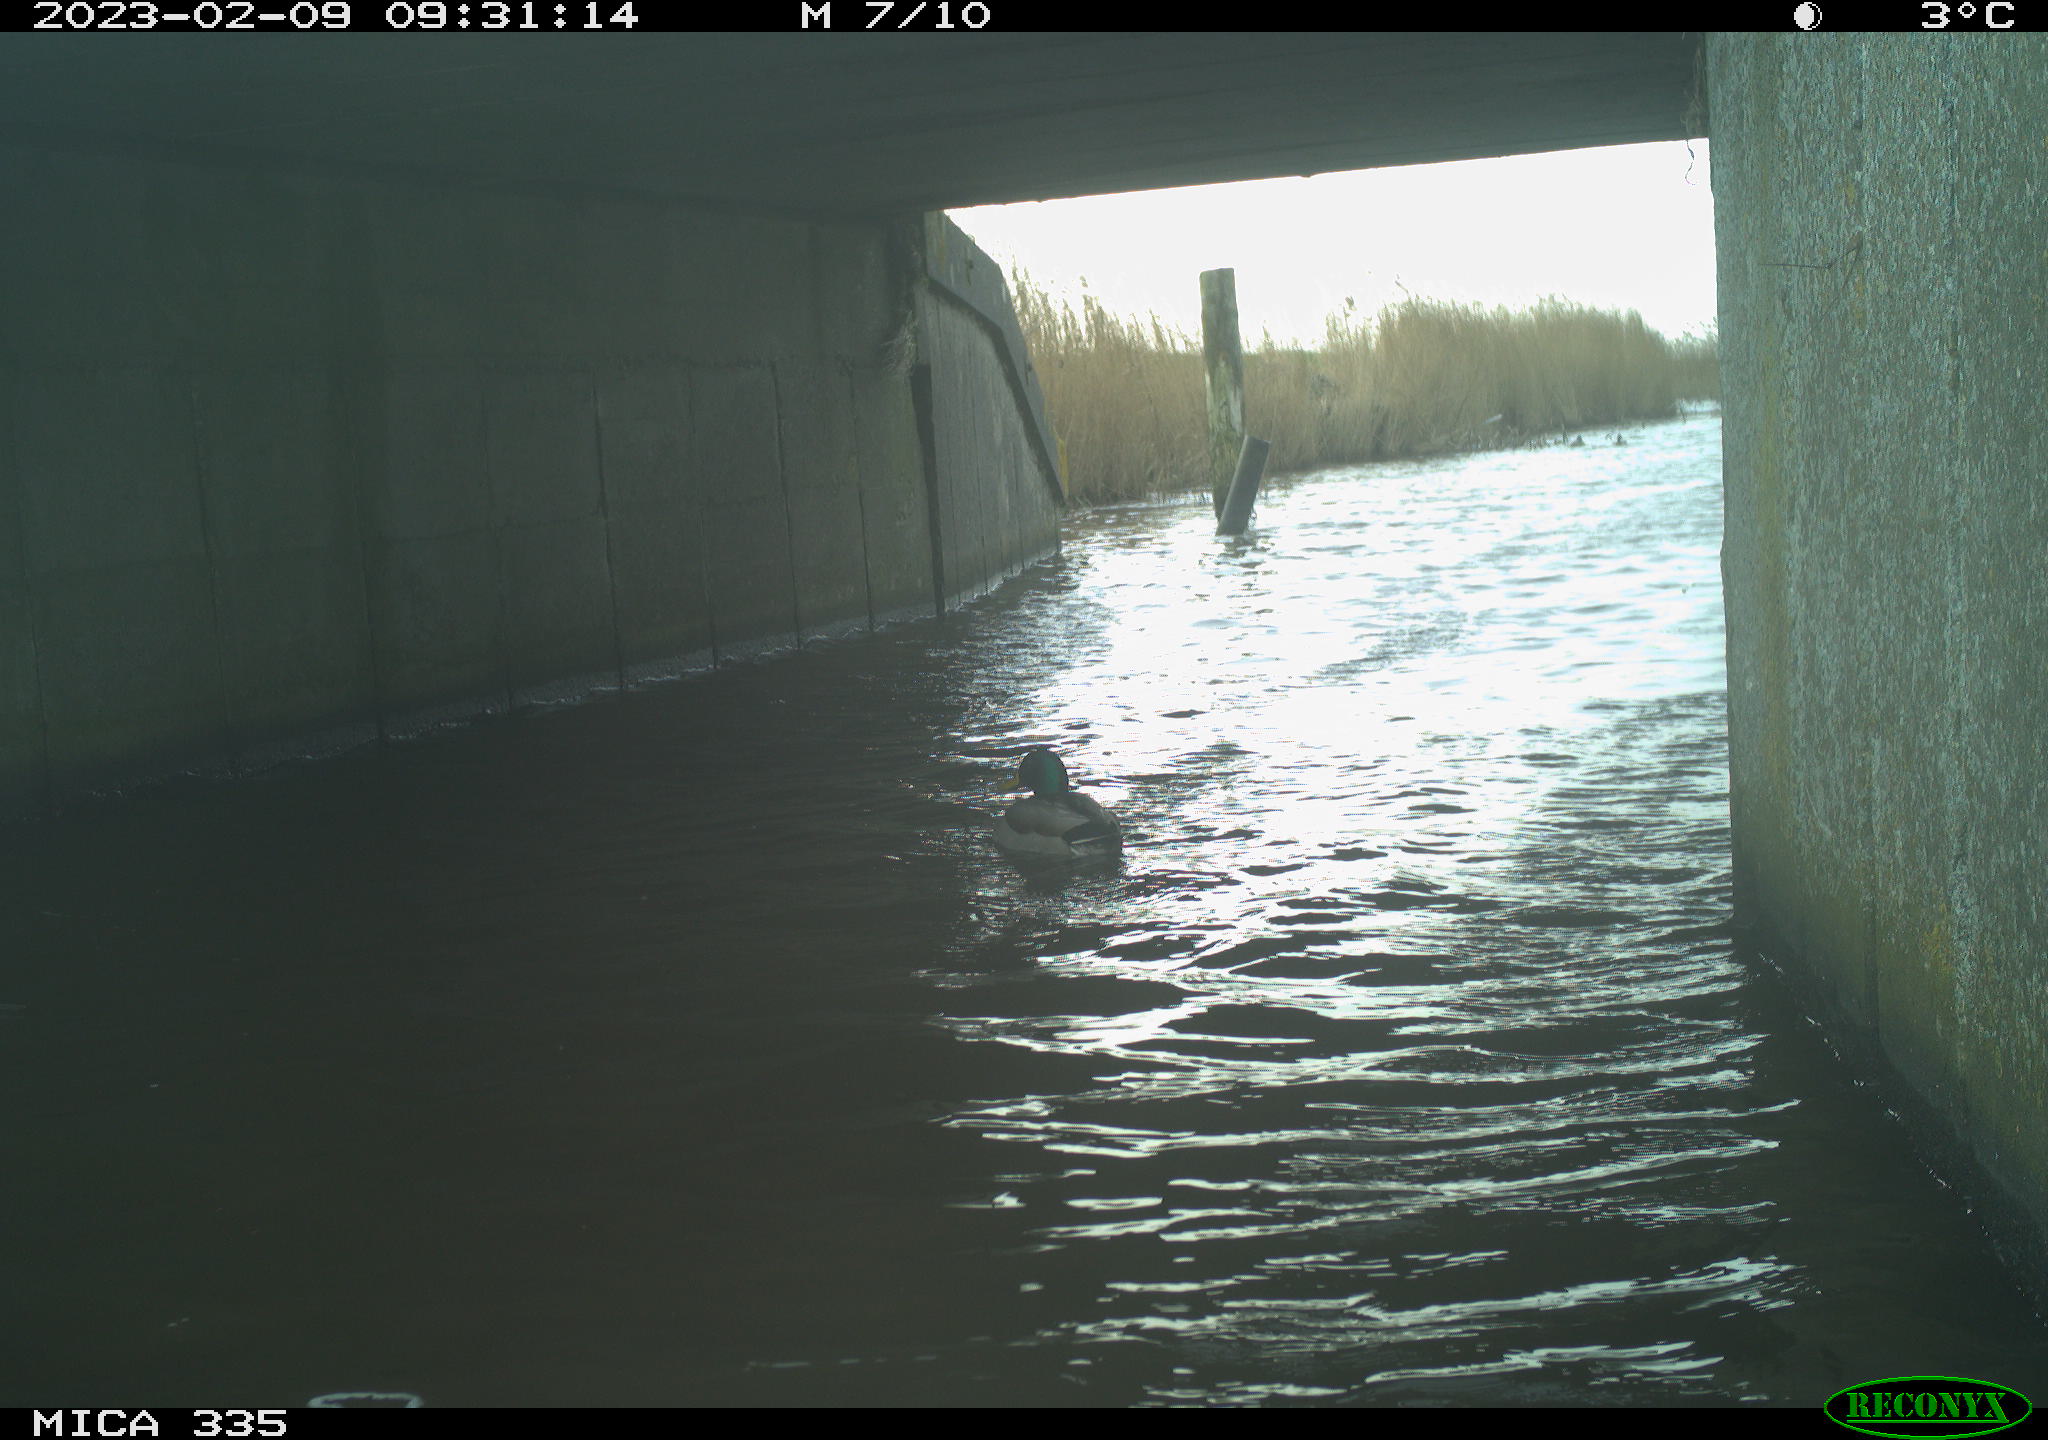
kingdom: Animalia
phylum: Chordata
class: Aves
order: Anseriformes
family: Anatidae
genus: Anas
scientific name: Anas
